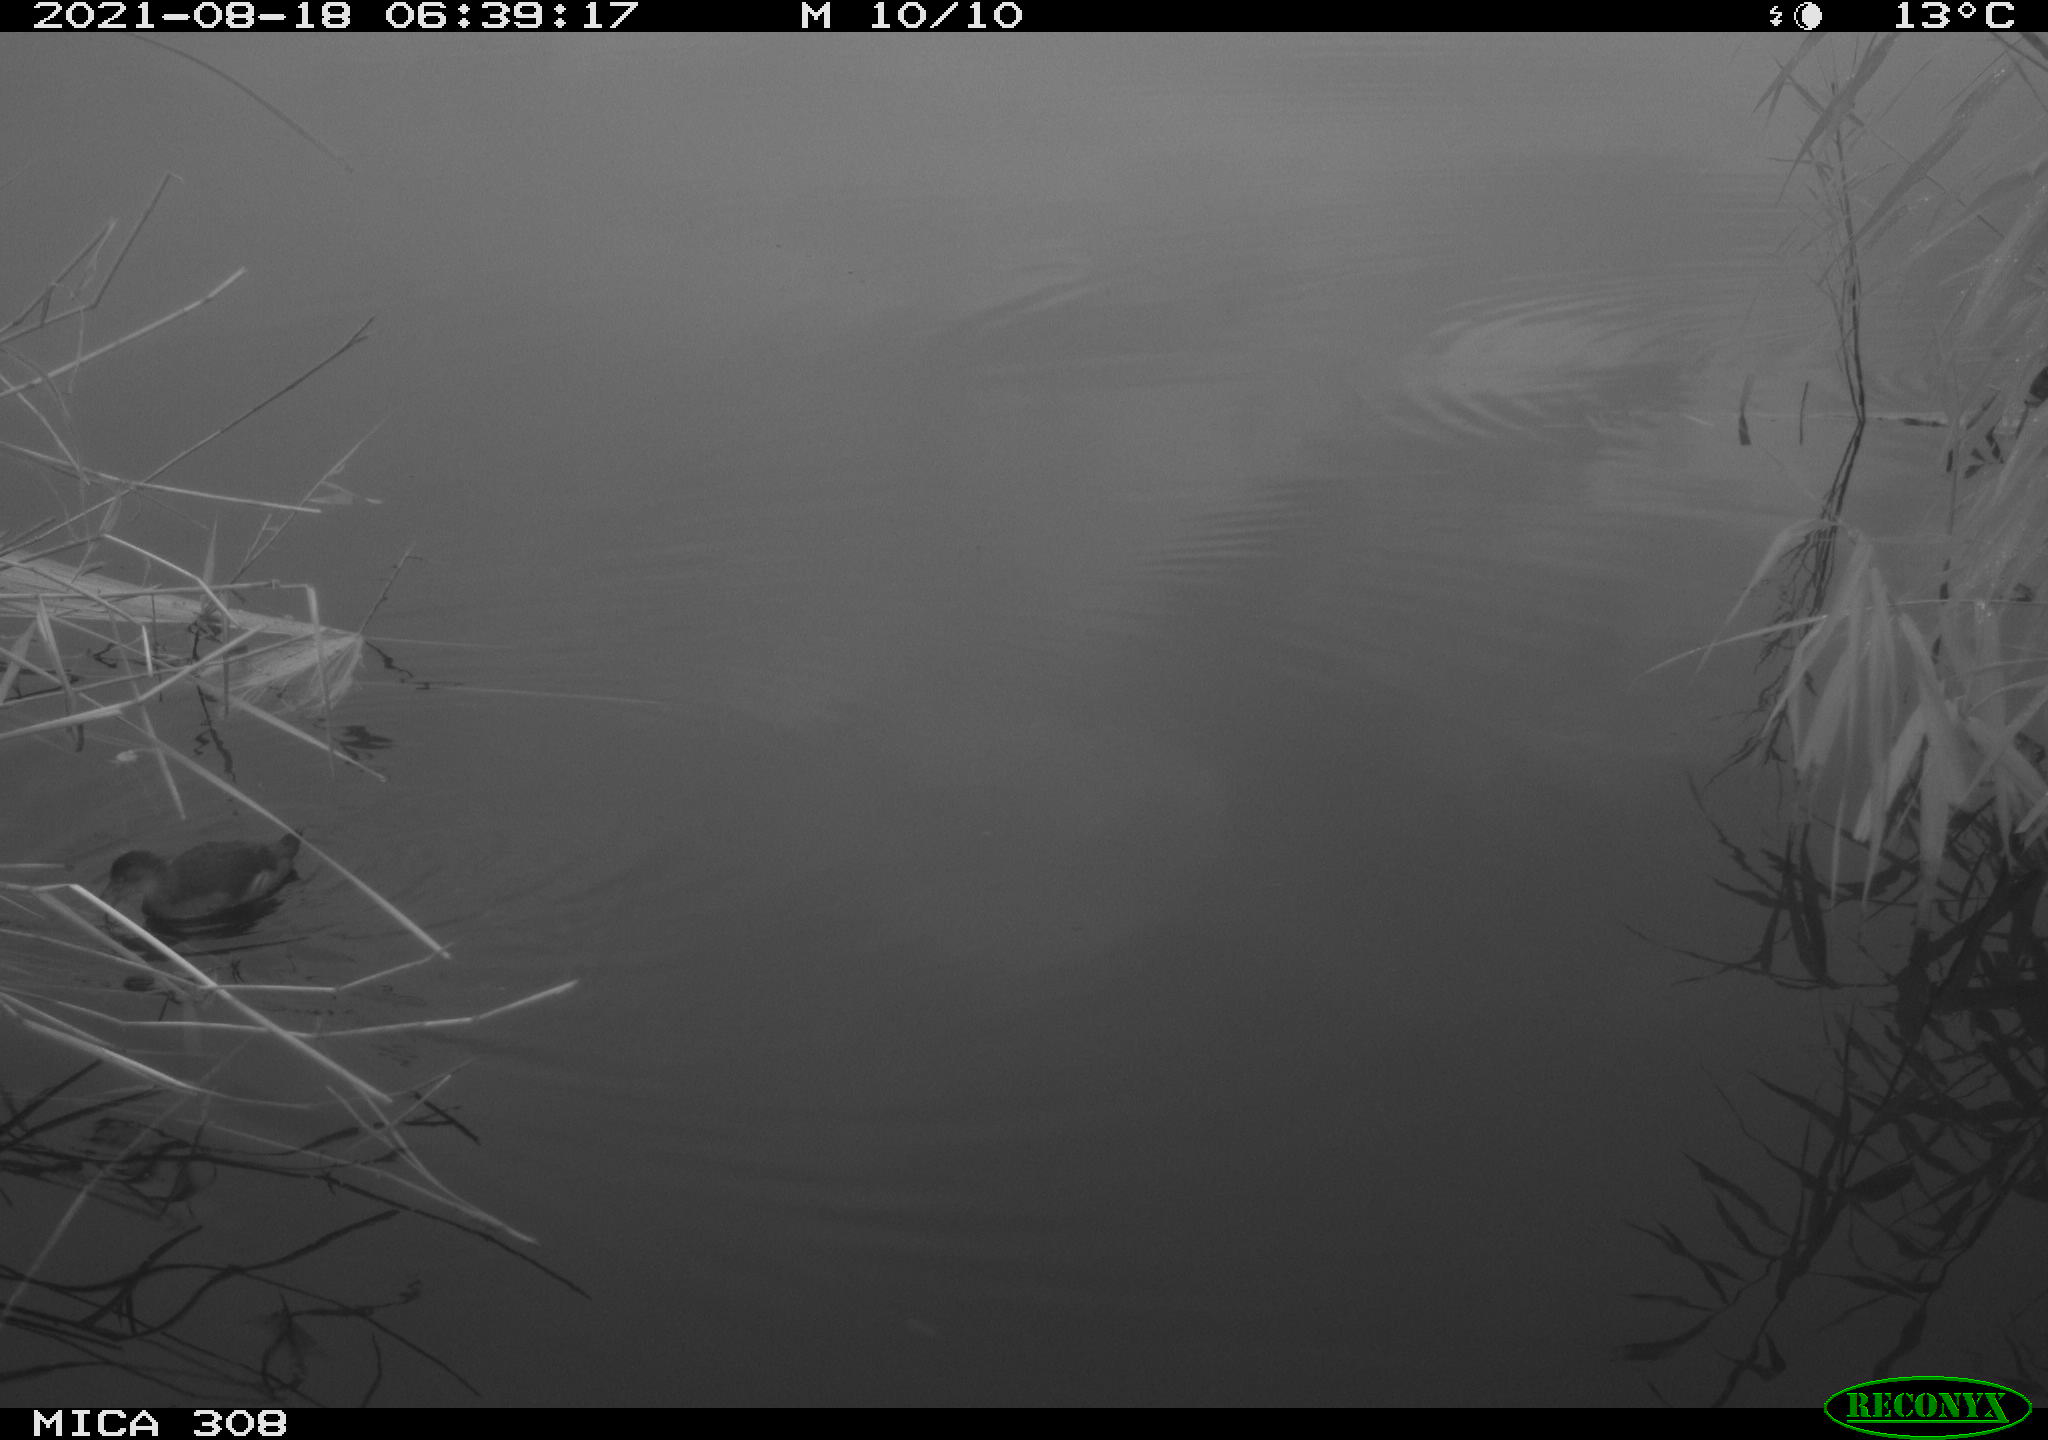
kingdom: Animalia
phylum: Chordata
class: Aves
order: Gruiformes
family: Rallidae
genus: Gallinula
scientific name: Gallinula chloropus
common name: Common moorhen
